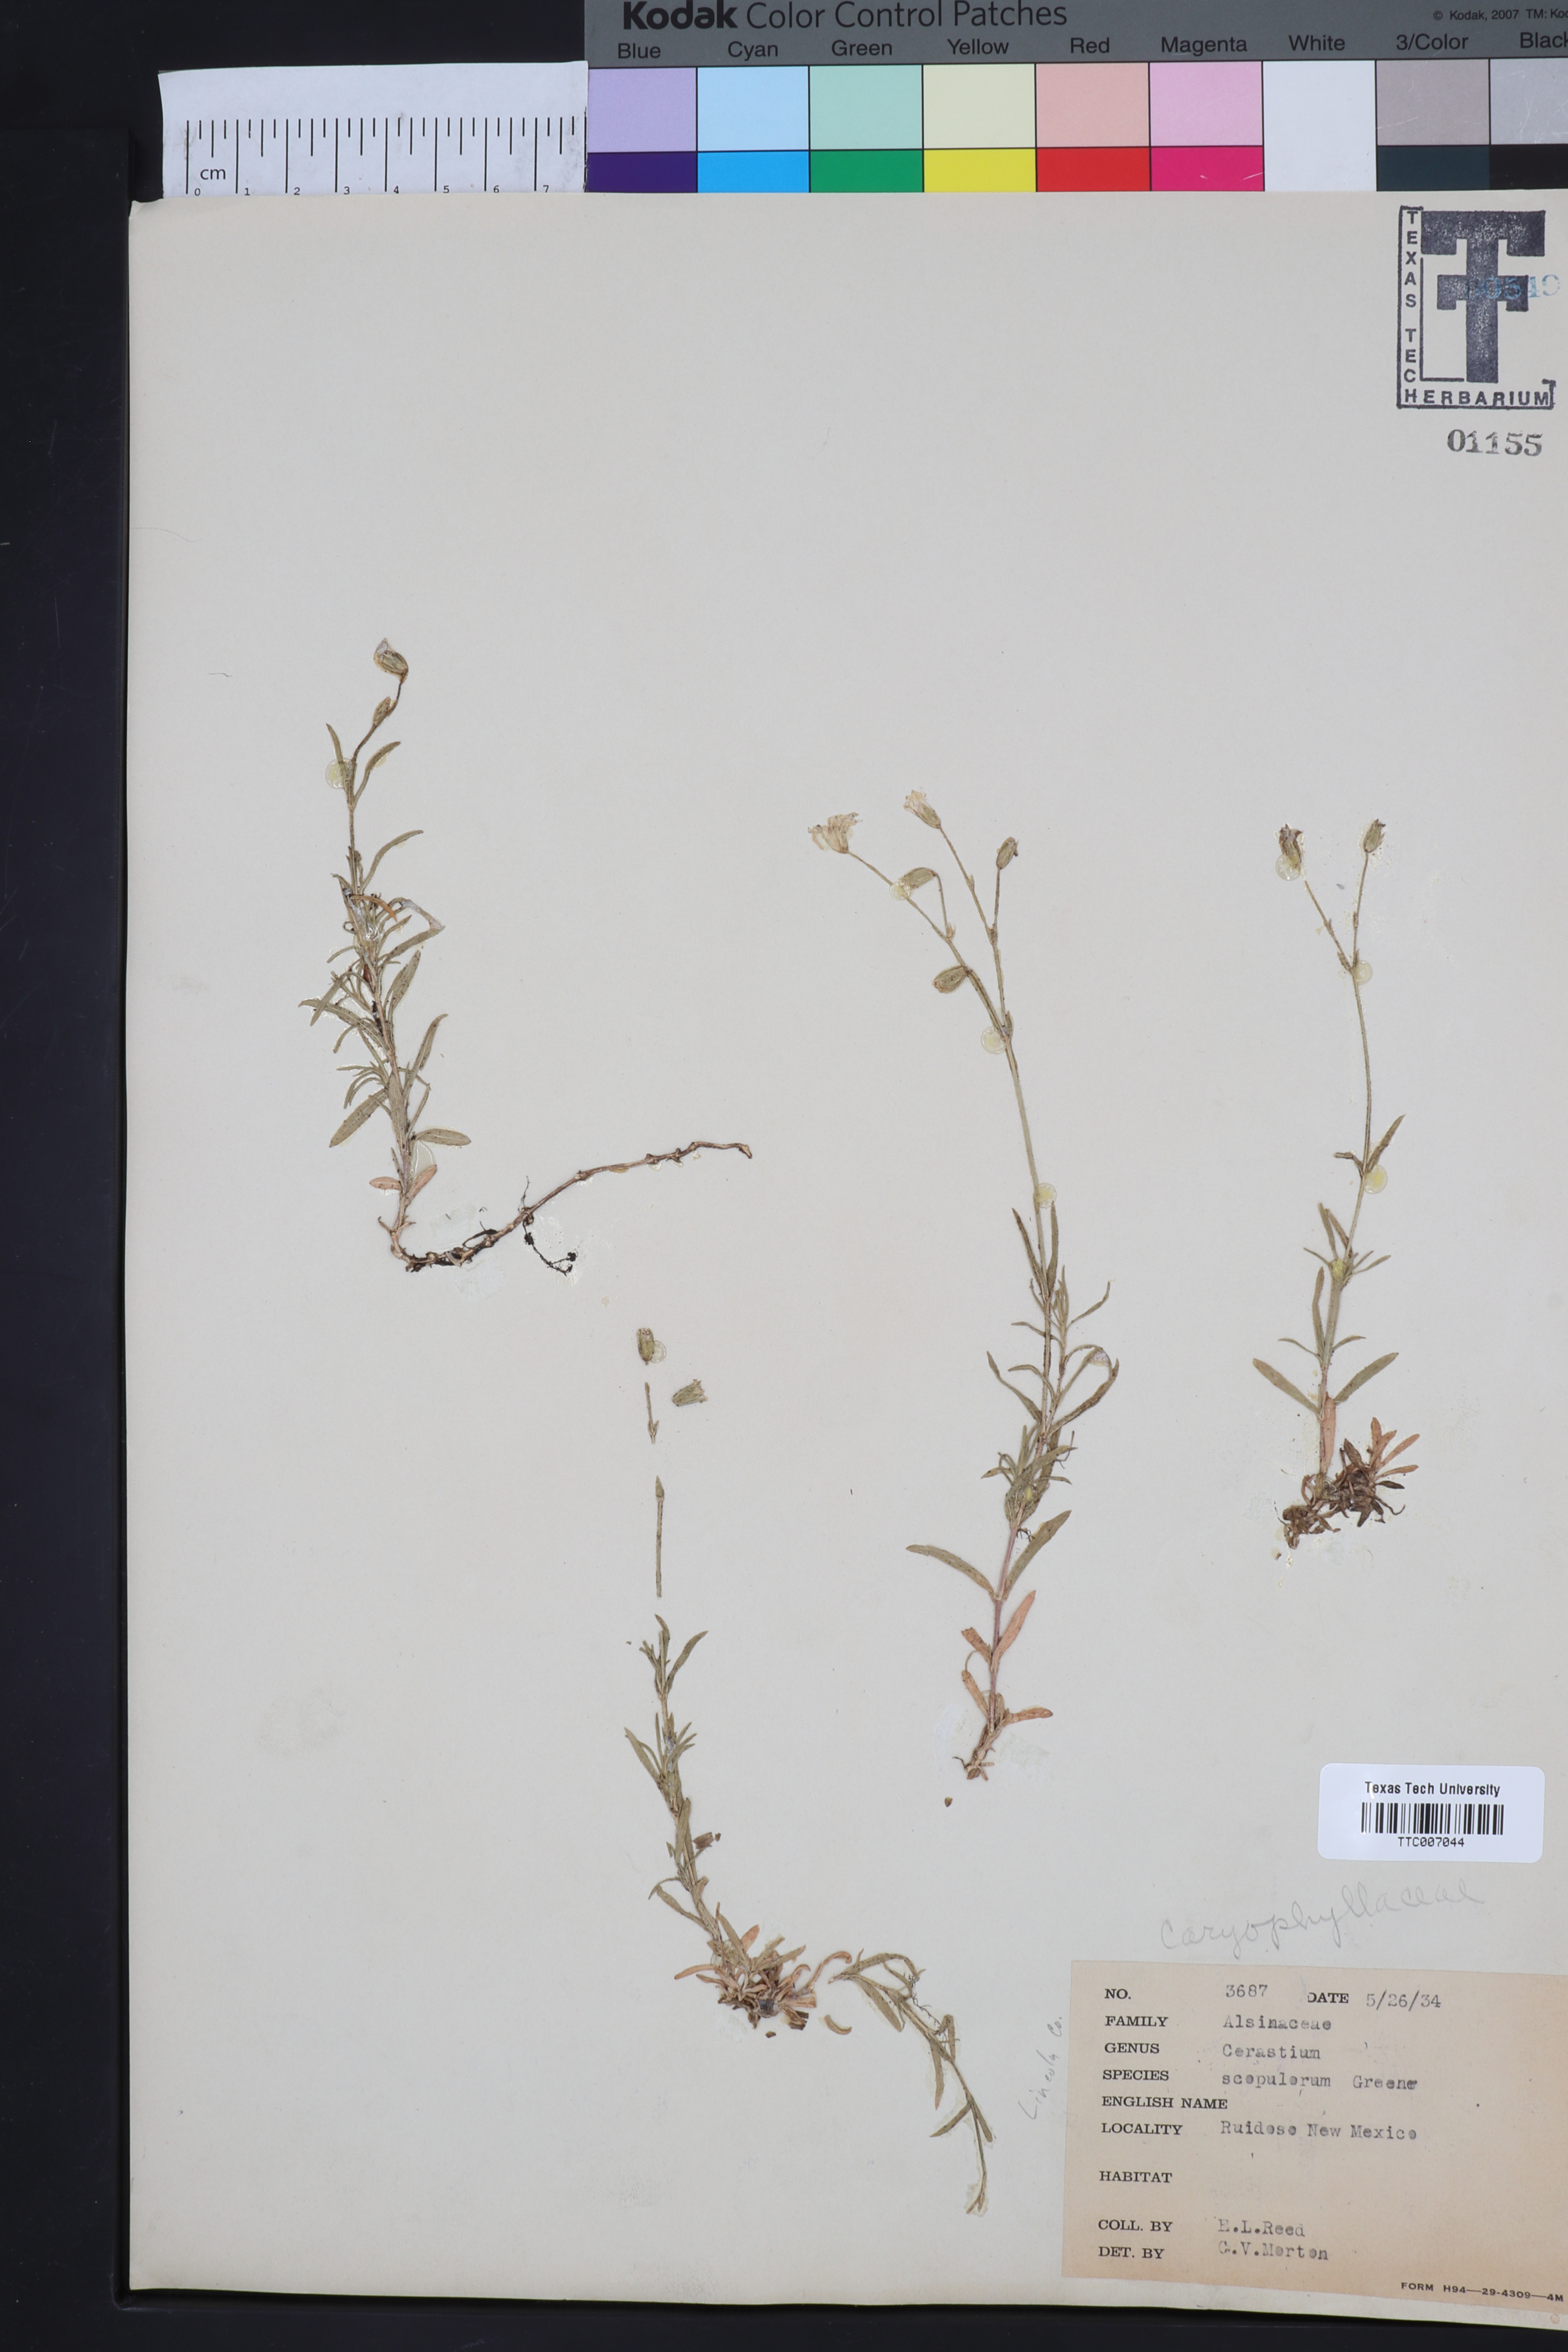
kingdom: Plantae
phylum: Tracheophyta
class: Magnoliopsida
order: Caryophyllales
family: Caryophyllaceae
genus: Cerastium
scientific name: Cerastium elongatum
